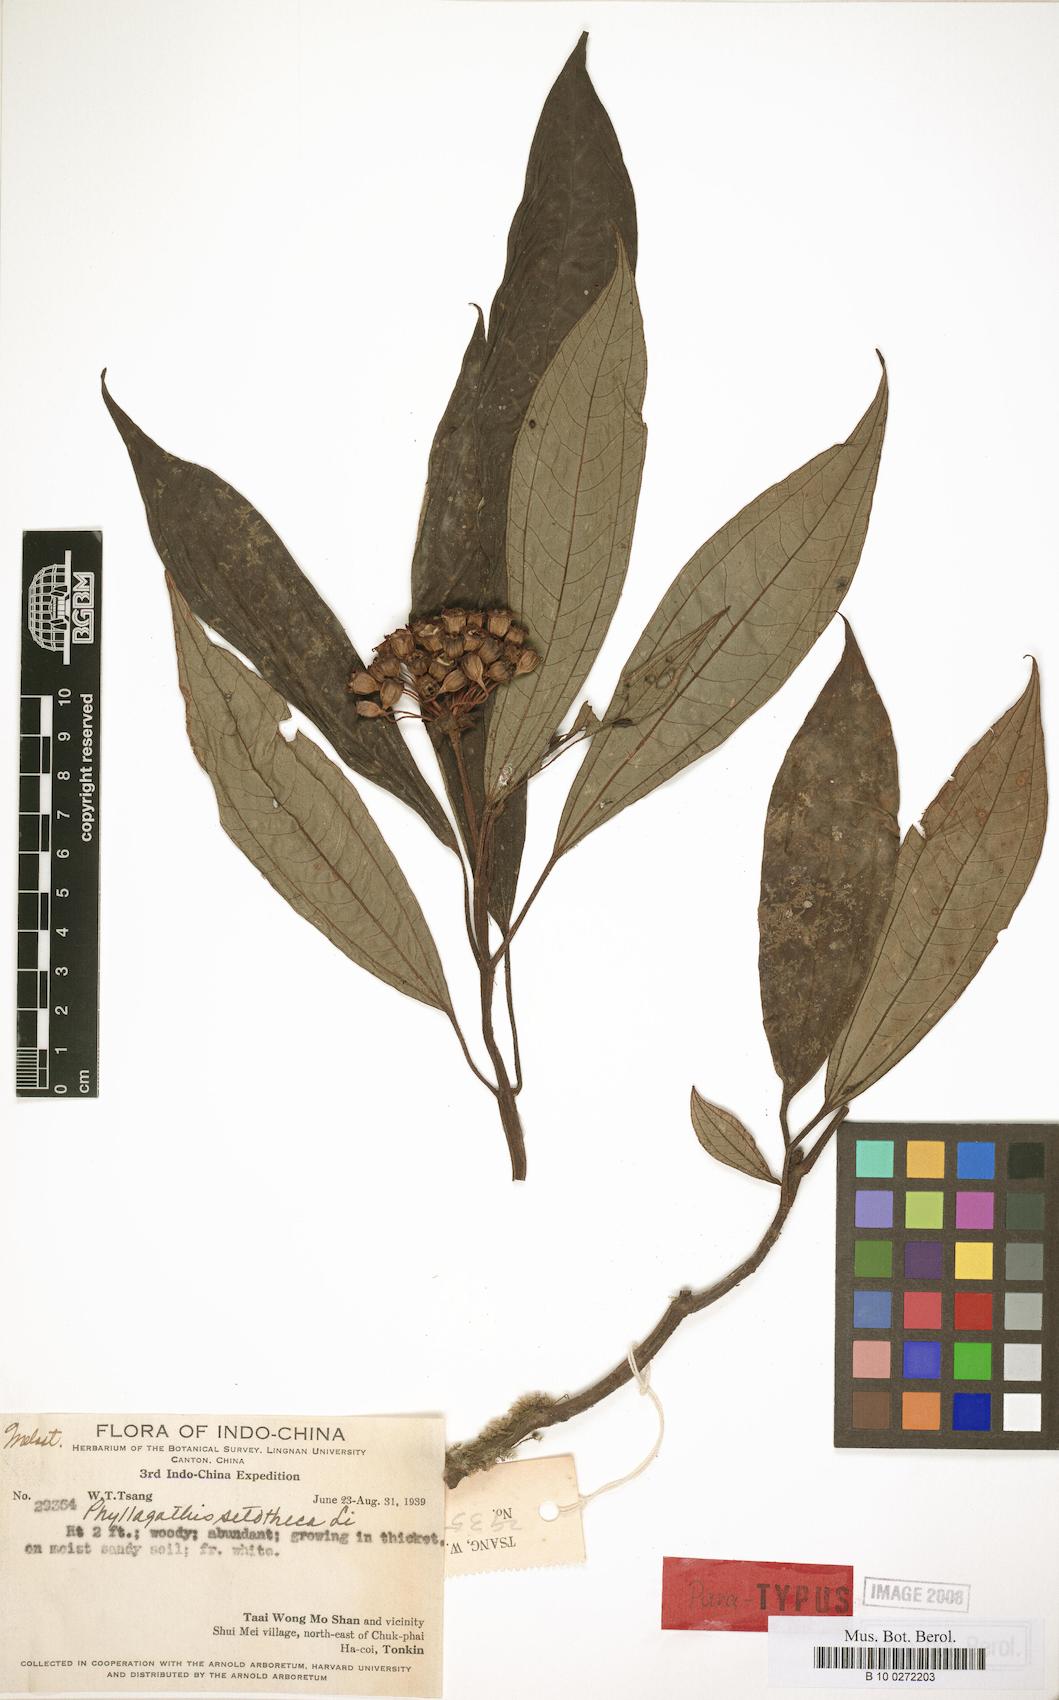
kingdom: Plantae
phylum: Tracheophyta
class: Magnoliopsida
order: Myrtales
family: Melastomataceae
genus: Phyllagathis
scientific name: Phyllagathis setotheca
